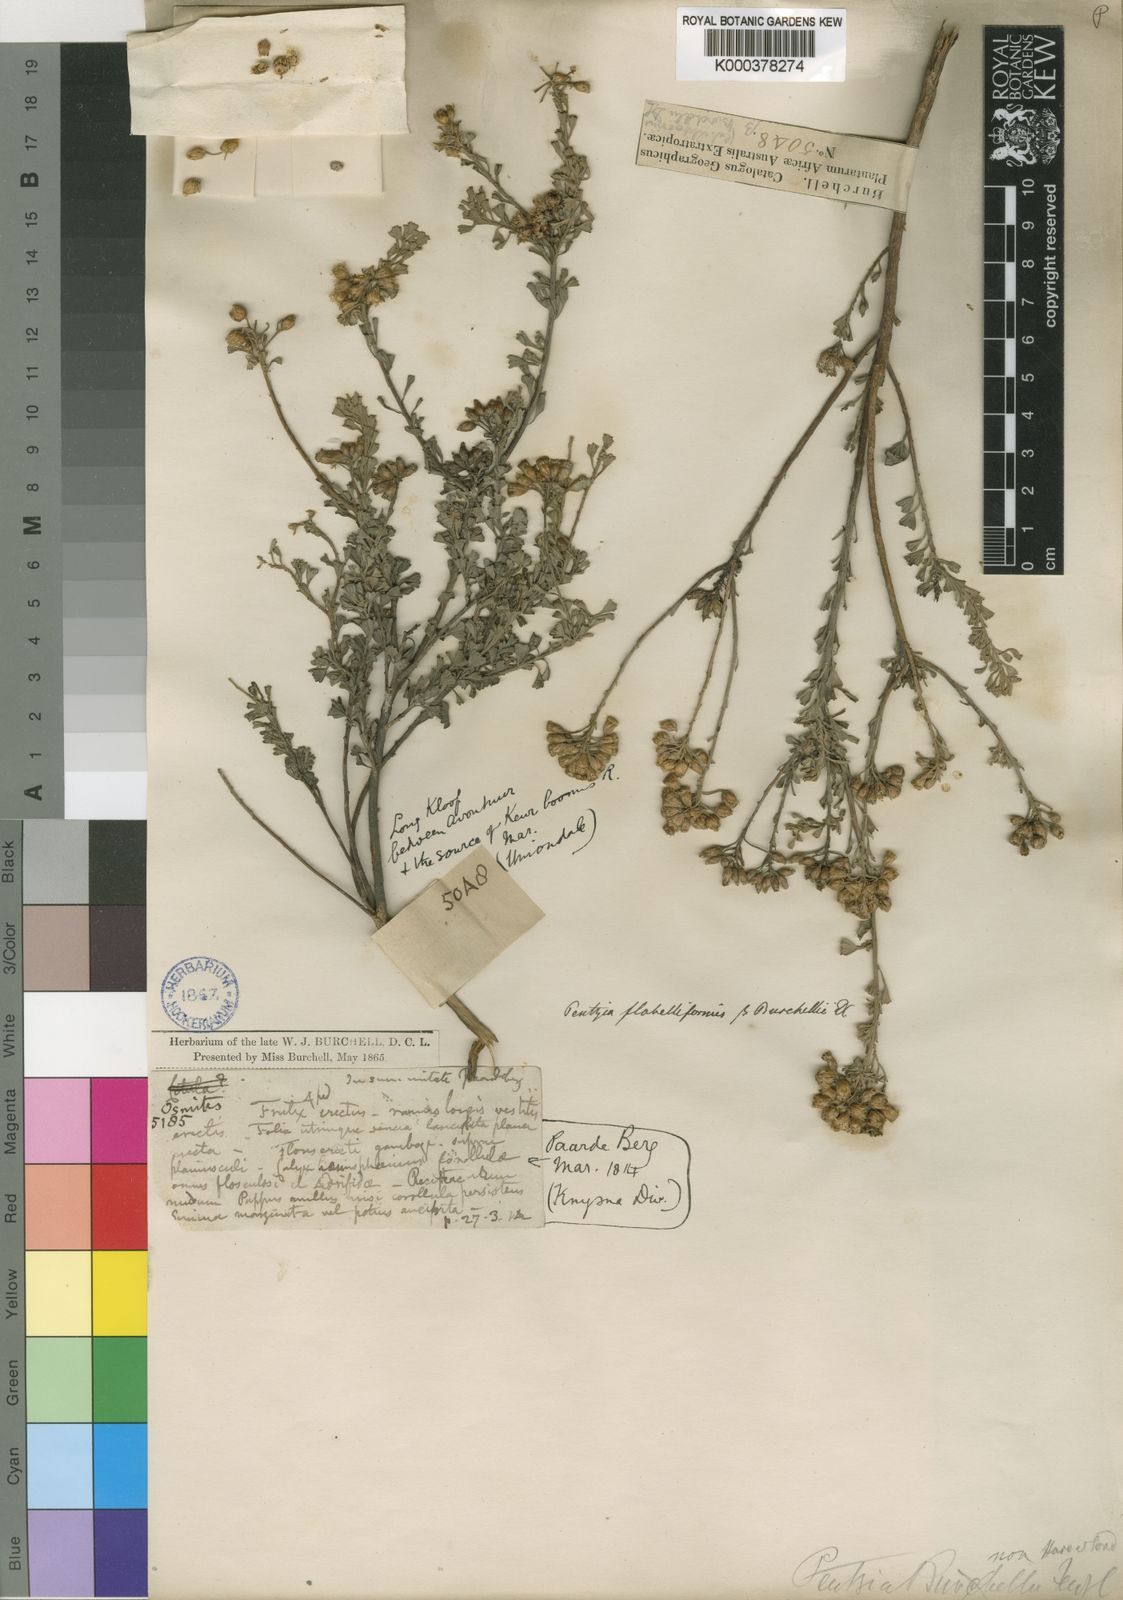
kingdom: Plantae
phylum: Tracheophyta
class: Magnoliopsida
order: Asterales
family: Asteraceae
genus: Pentzia
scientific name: Pentzia dentata
